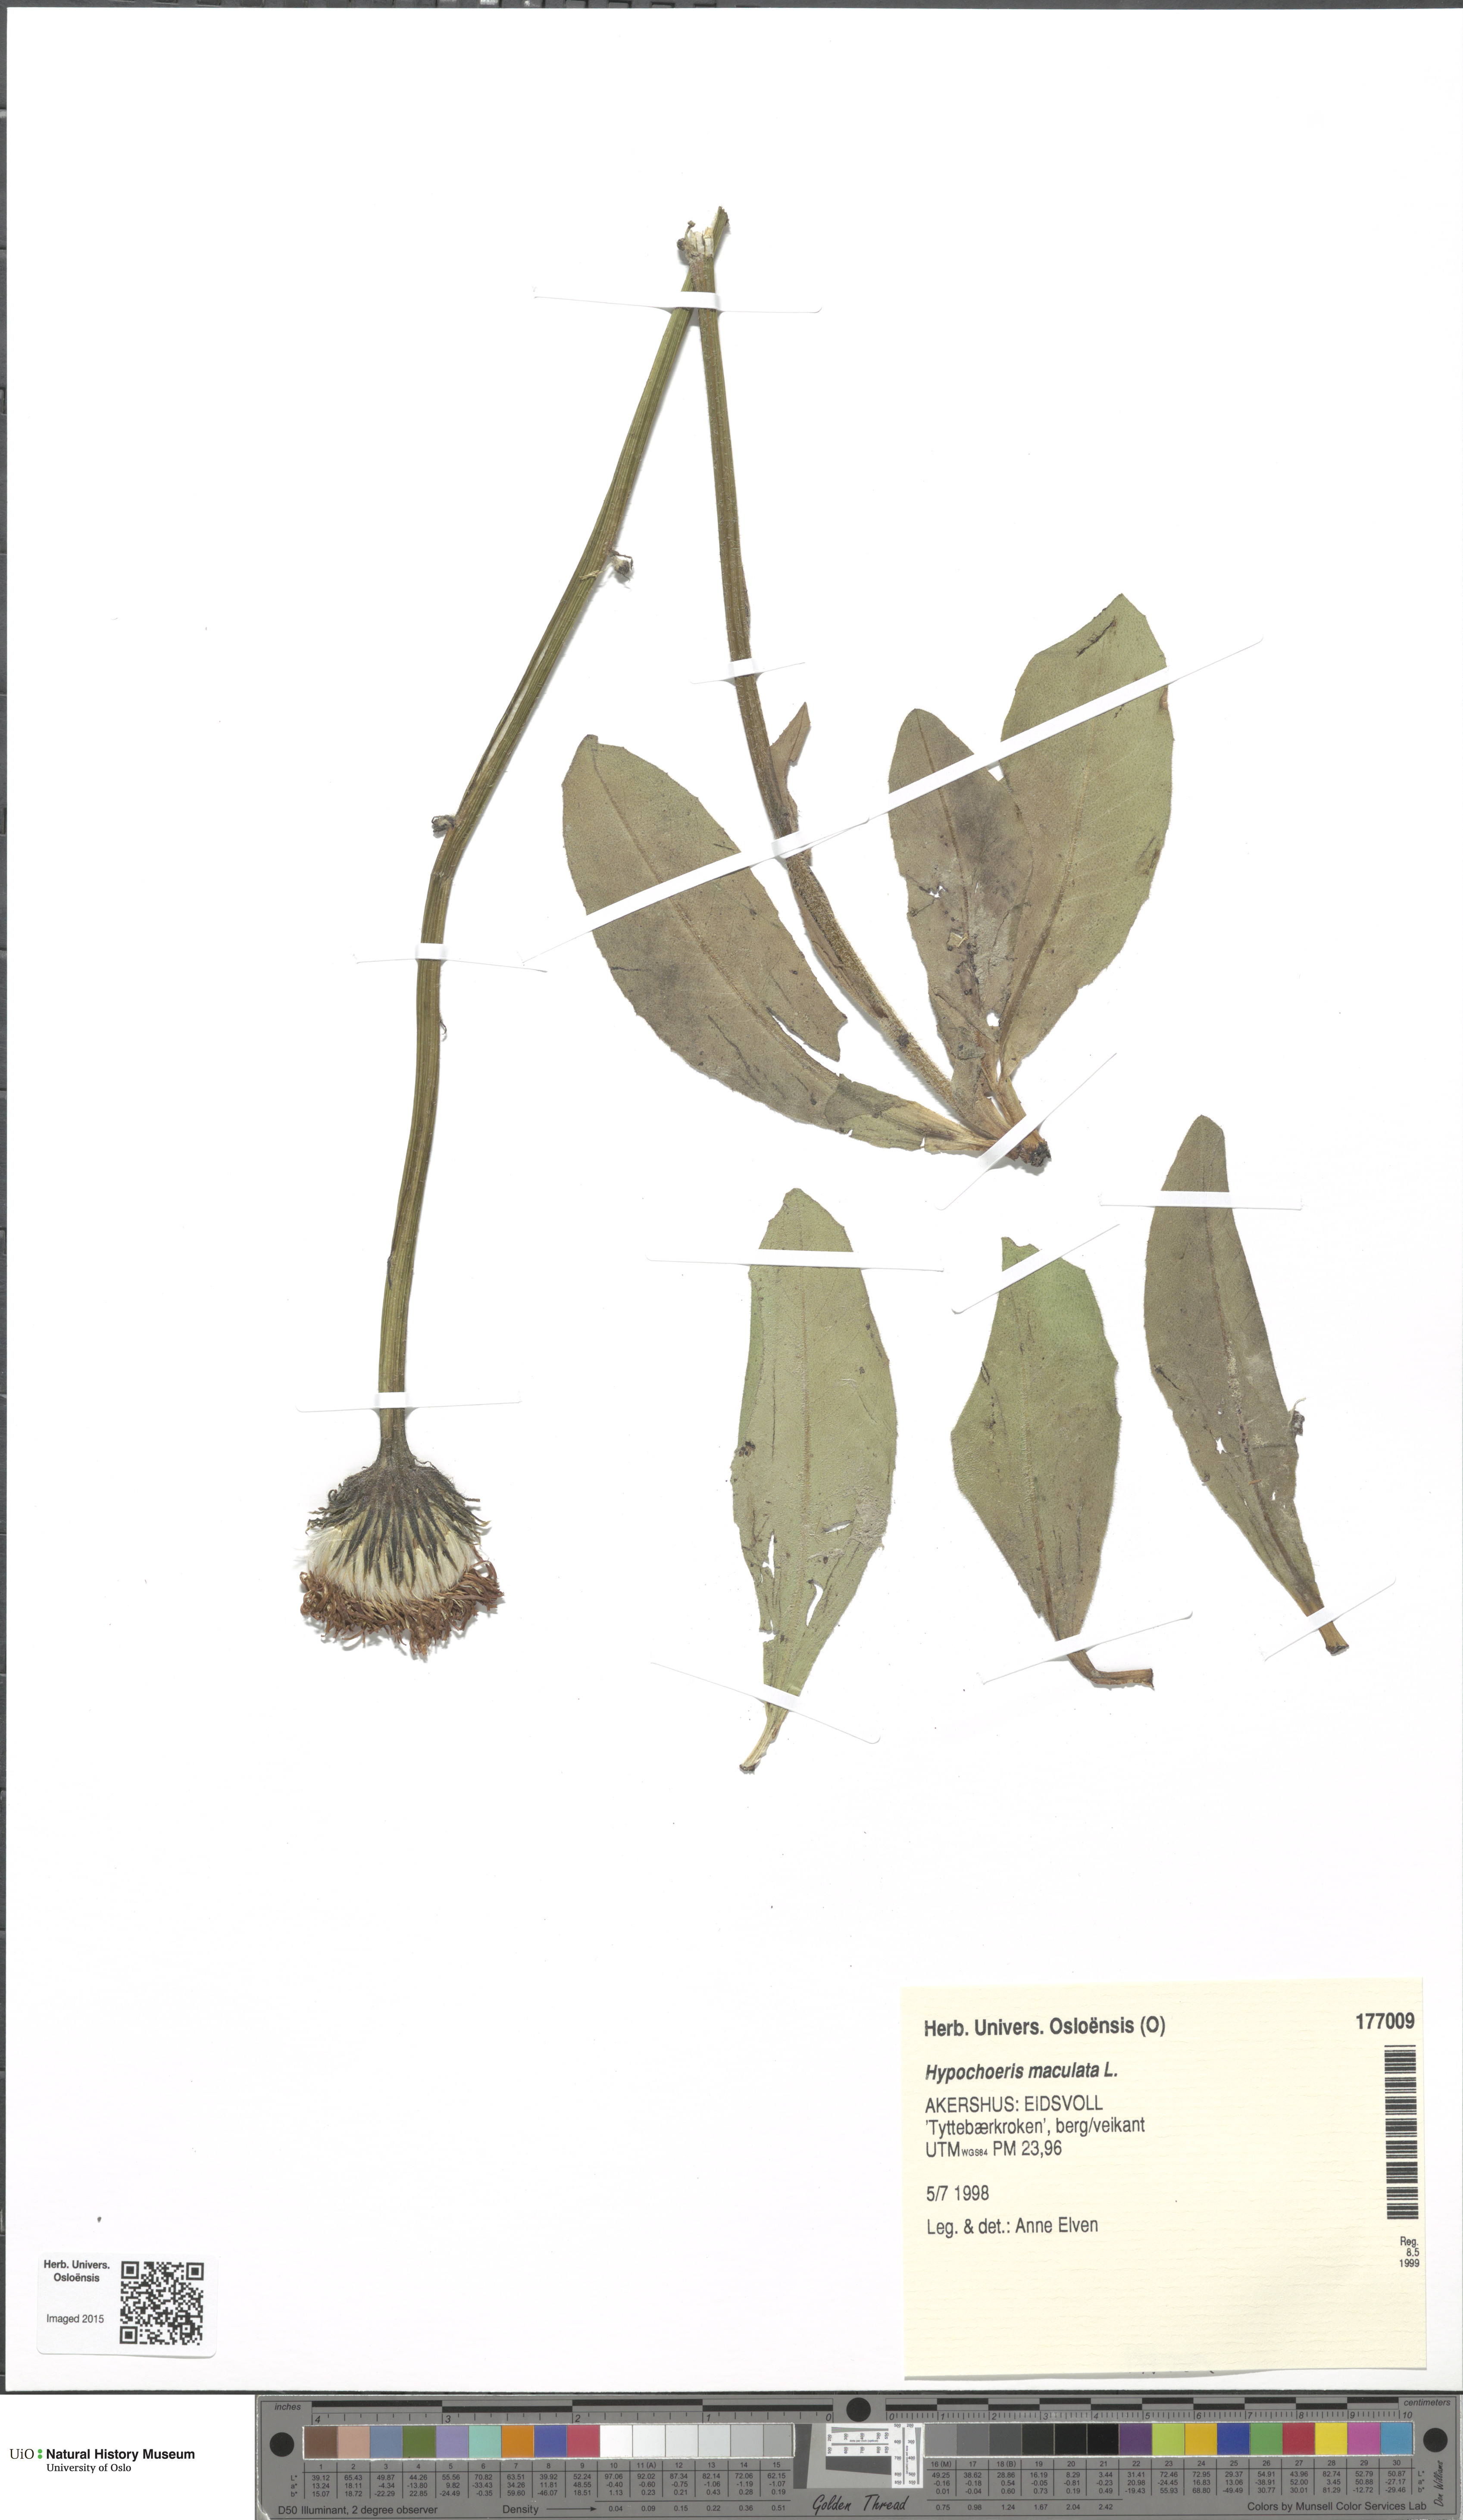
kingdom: Plantae
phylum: Tracheophyta
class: Magnoliopsida
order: Asterales
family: Asteraceae
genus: Trommsdorffia
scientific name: Trommsdorffia maculata
